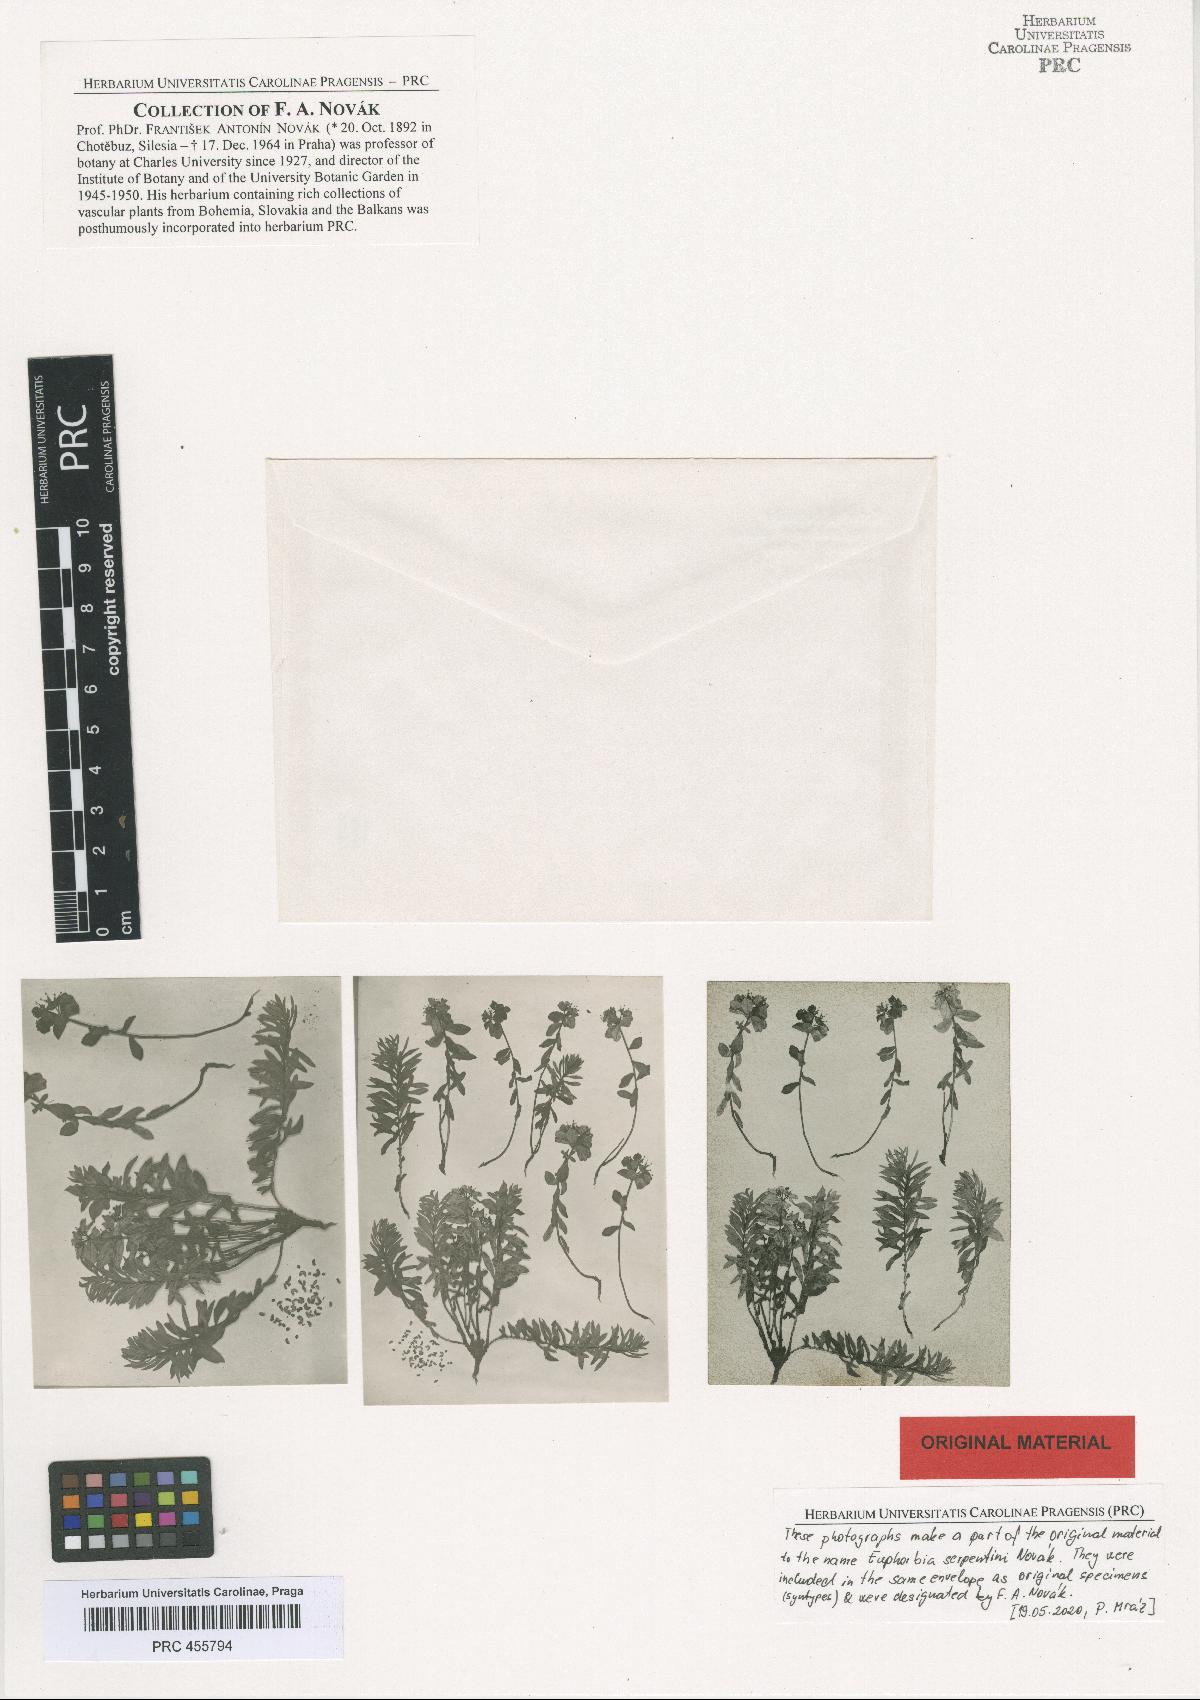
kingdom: Plantae
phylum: Tracheophyta
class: Magnoliopsida
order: Malpighiales
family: Euphorbiaceae
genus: Euphorbia
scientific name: Euphorbia serpentini
